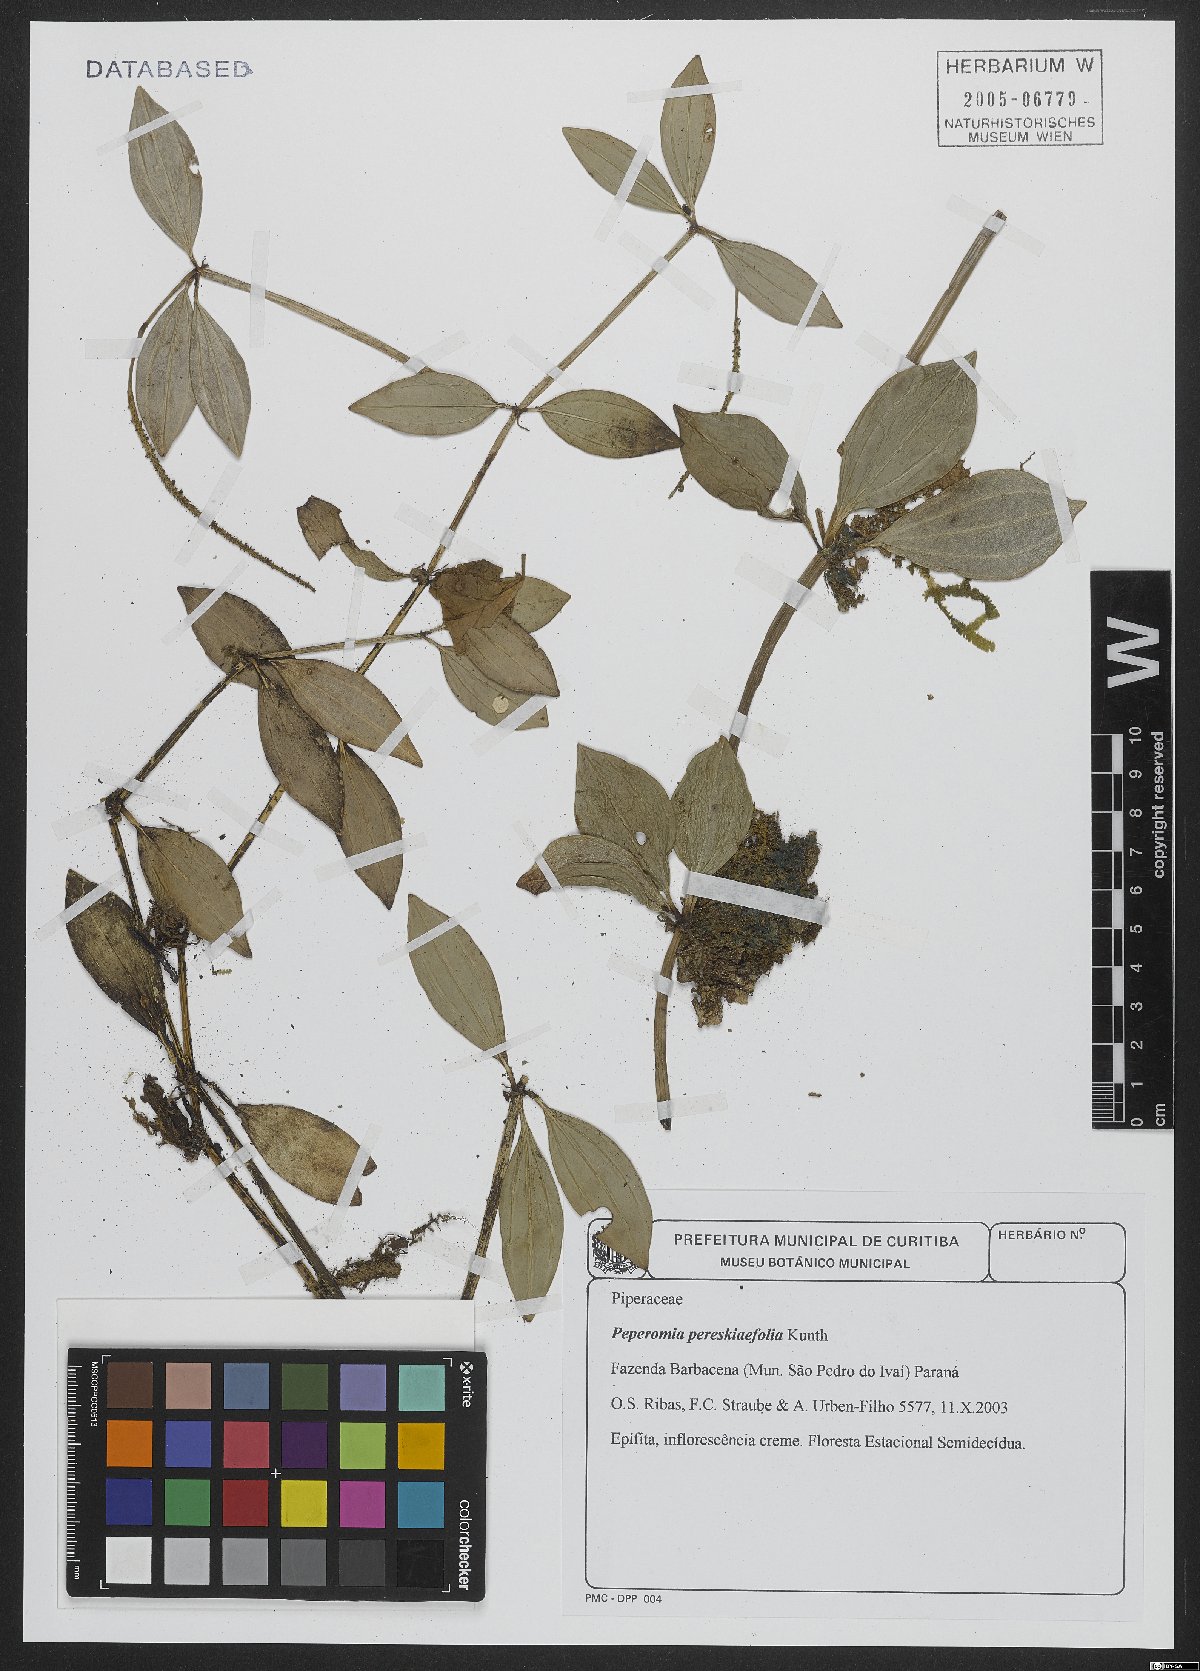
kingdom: Plantae
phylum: Tracheophyta
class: Magnoliopsida
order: Piperales
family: Piperaceae
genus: Peperomia
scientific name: Peperomia pereskiifolia
